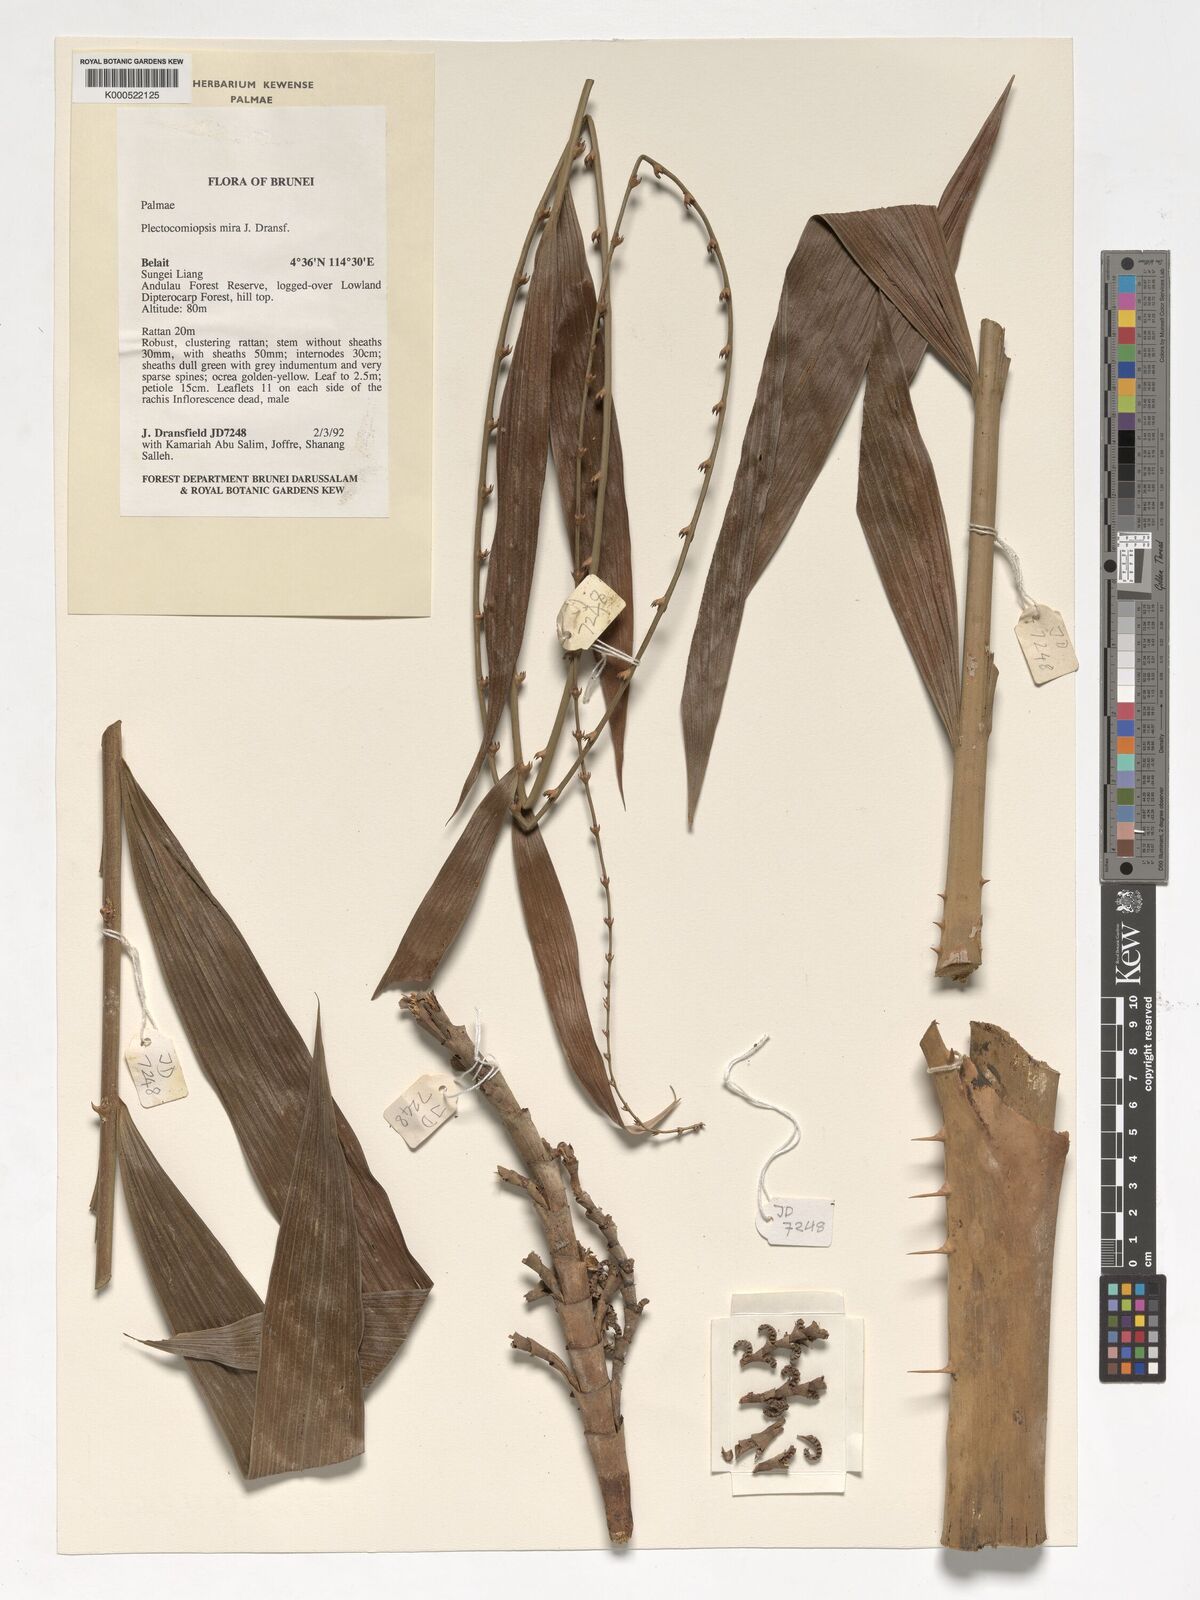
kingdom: Plantae
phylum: Tracheophyta
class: Liliopsida
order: Arecales
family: Arecaceae
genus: Plectocomiopsis
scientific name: Plectocomiopsis mira
